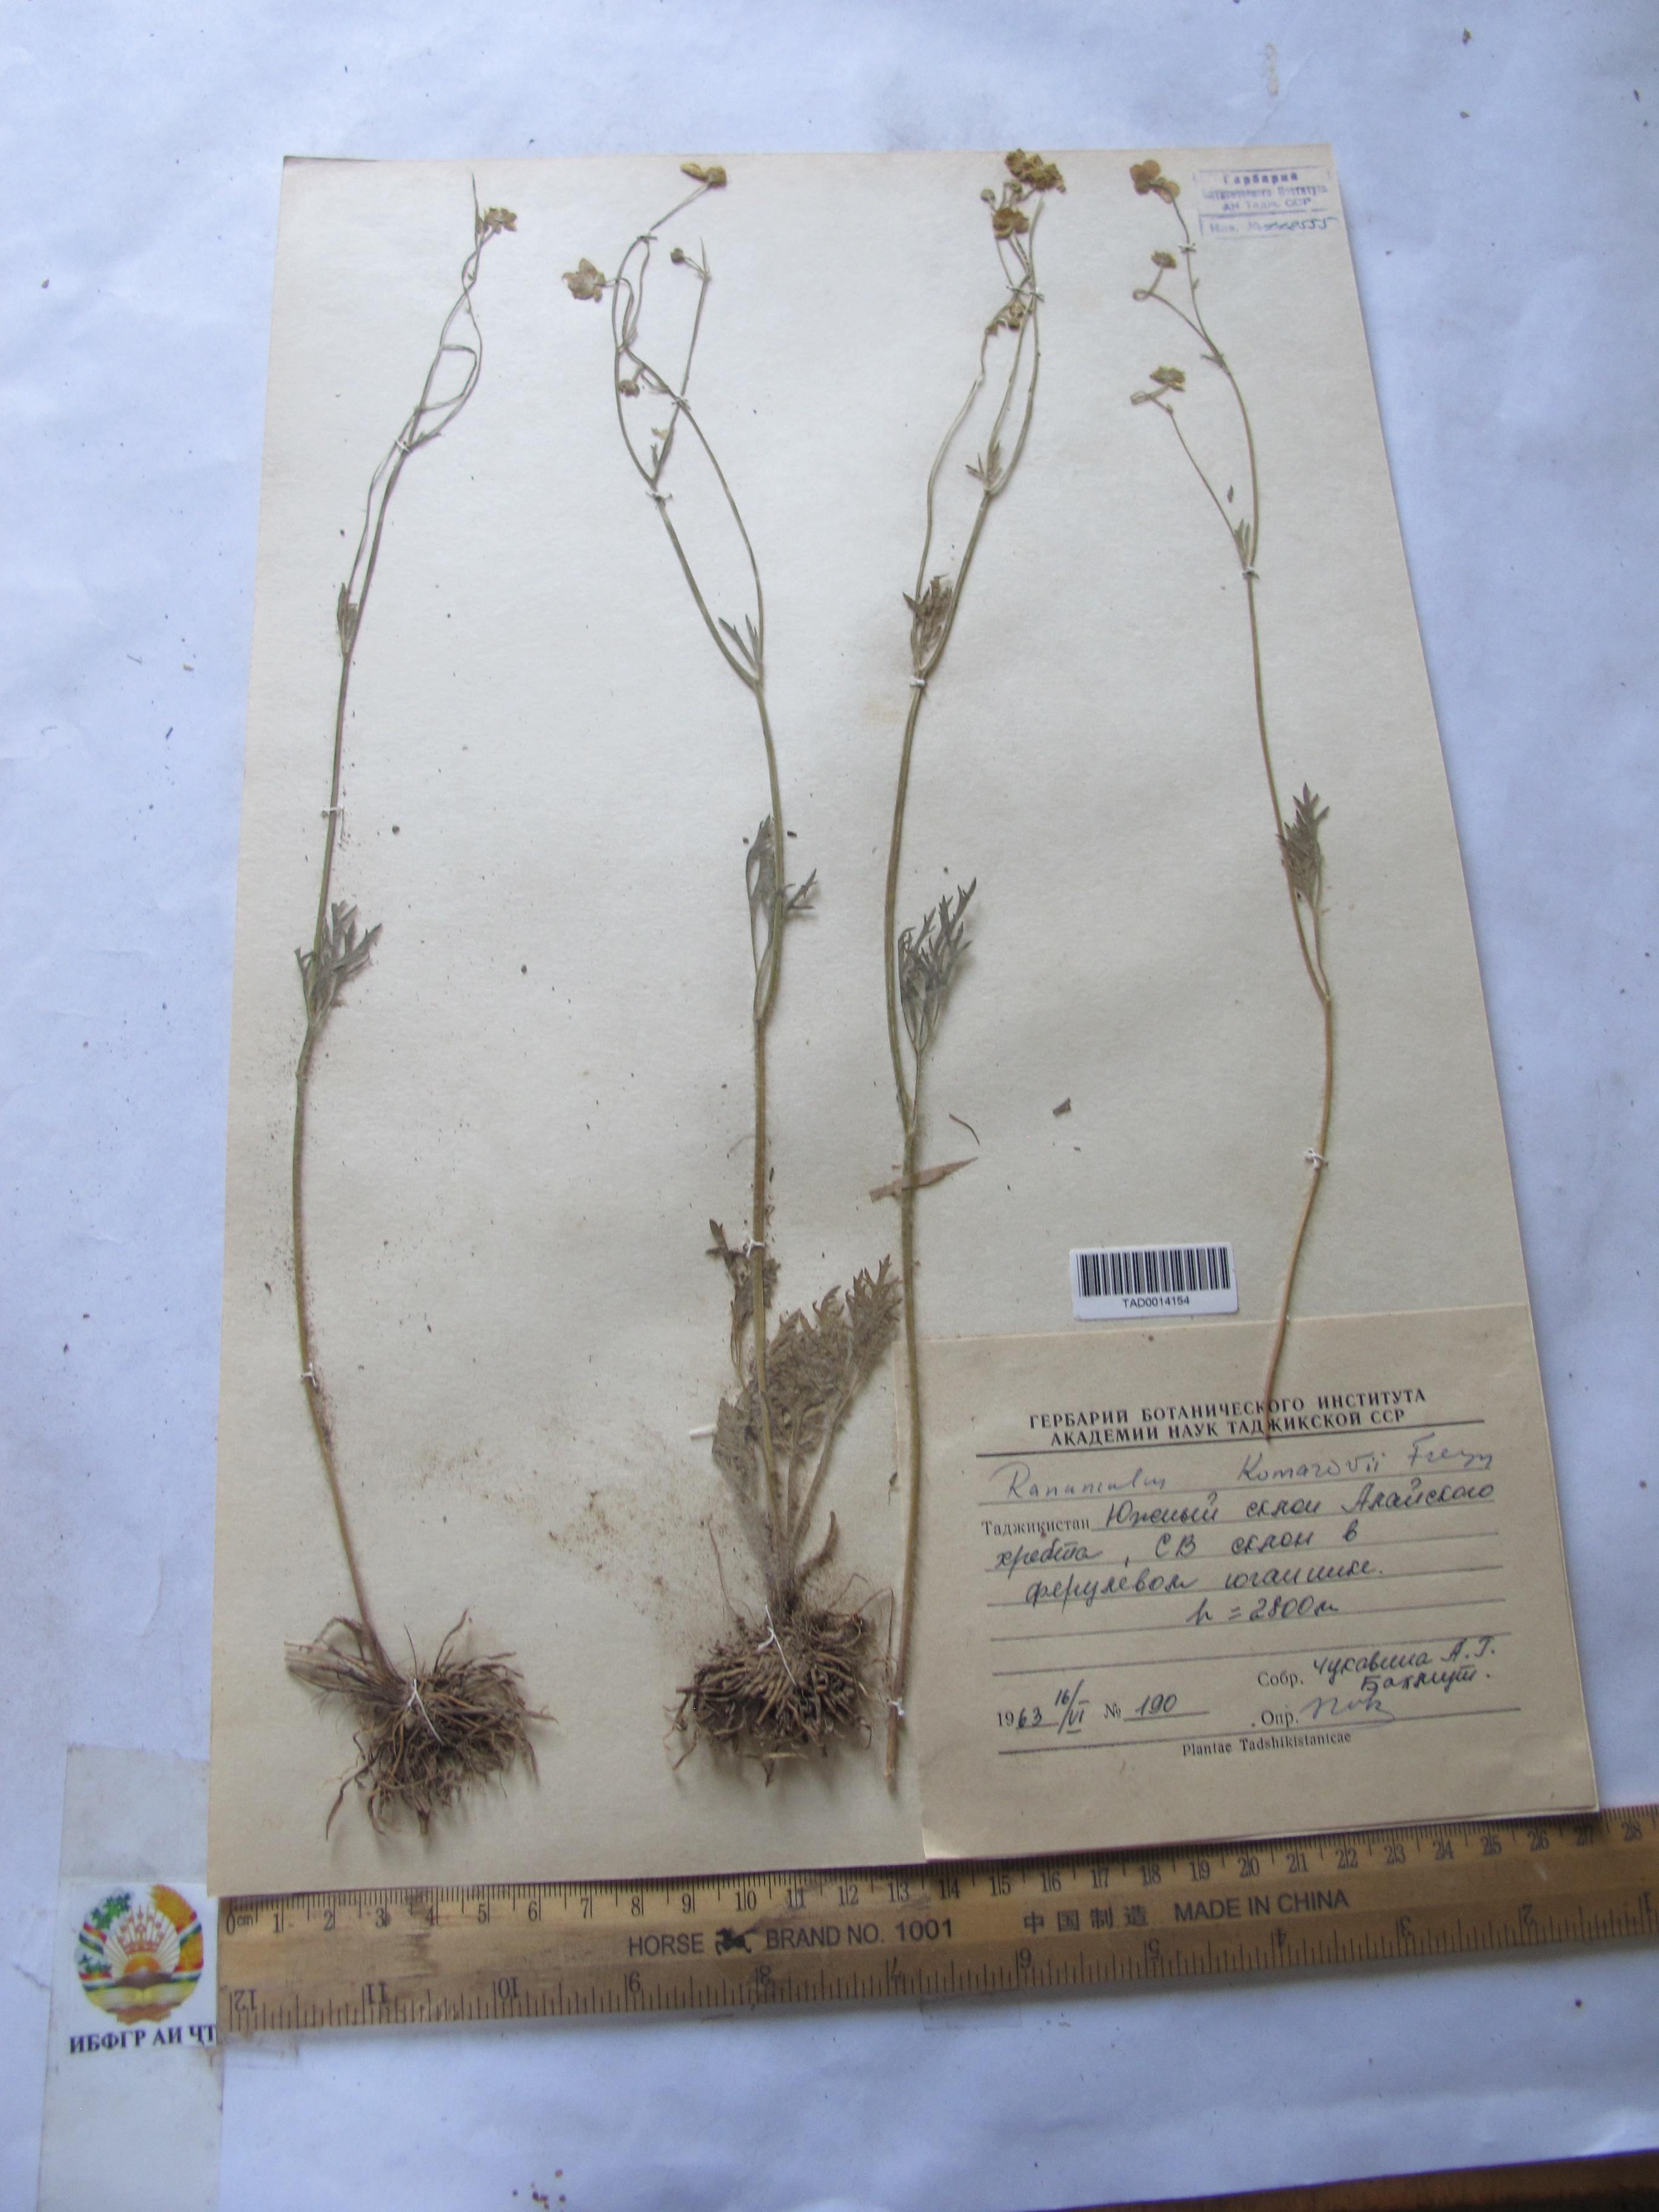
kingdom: Plantae
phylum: Tracheophyta
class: Magnoliopsida
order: Ranunculales
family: Ranunculaceae
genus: Ranunculus
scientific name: Ranunculus komarovii
